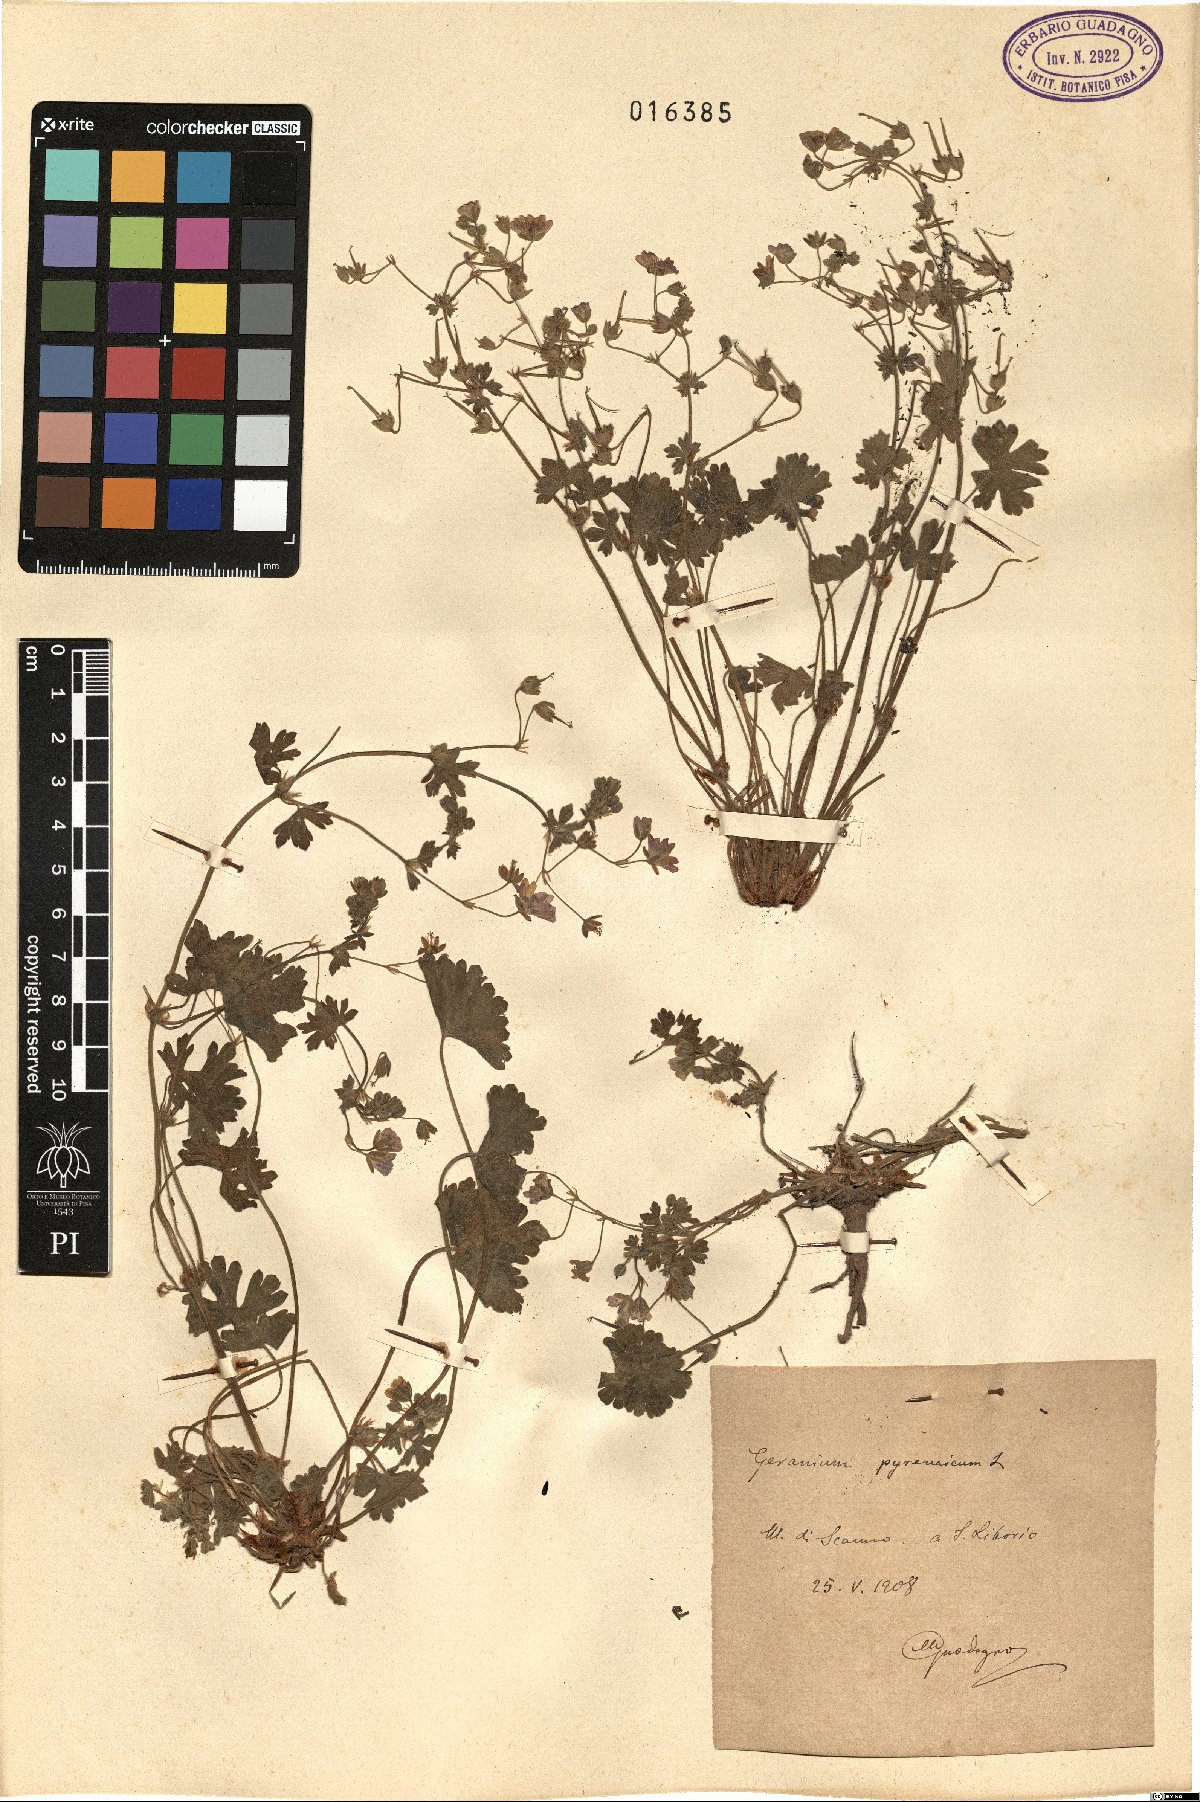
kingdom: Plantae
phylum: Tracheophyta
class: Magnoliopsida
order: Geraniales
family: Geraniaceae
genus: Geranium
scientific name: Geranium pyrenaicum
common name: Hedgerow crane's-bill
